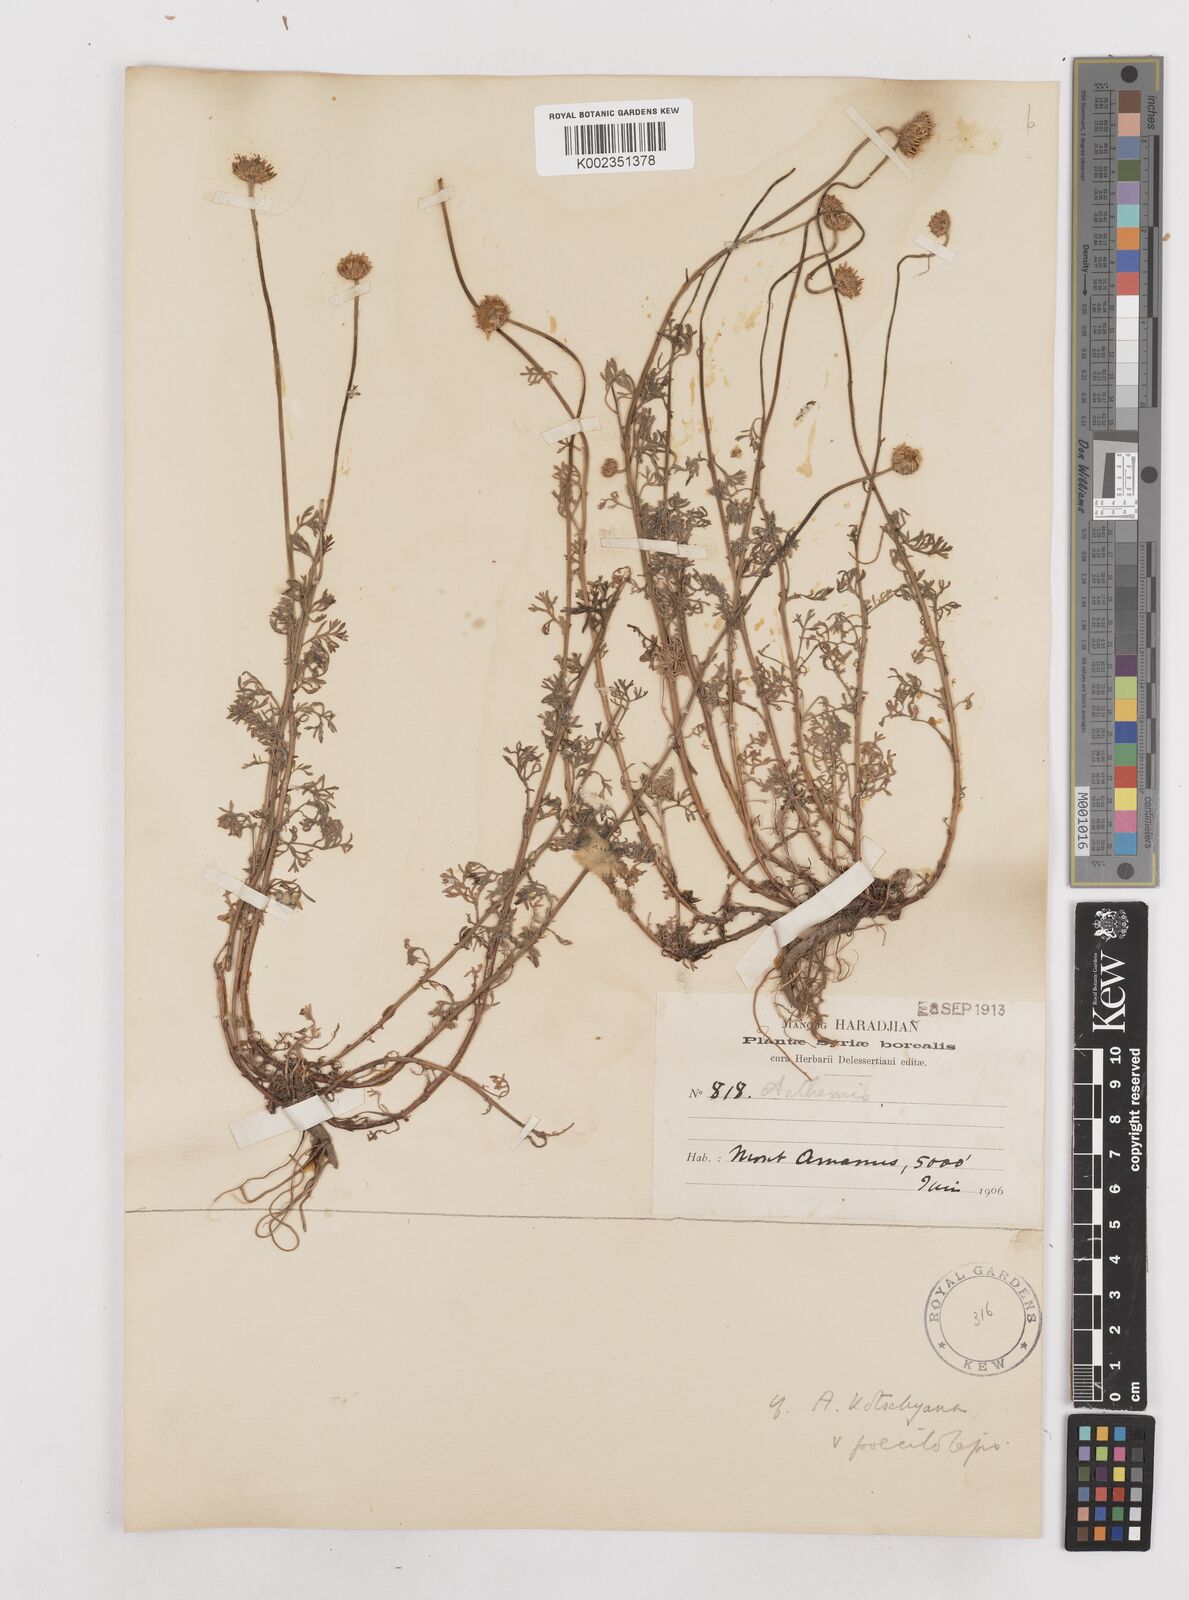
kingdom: Plantae
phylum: Tracheophyta
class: Magnoliopsida
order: Asterales
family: Asteraceae
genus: Anthemis
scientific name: Anthemis kotschyana
